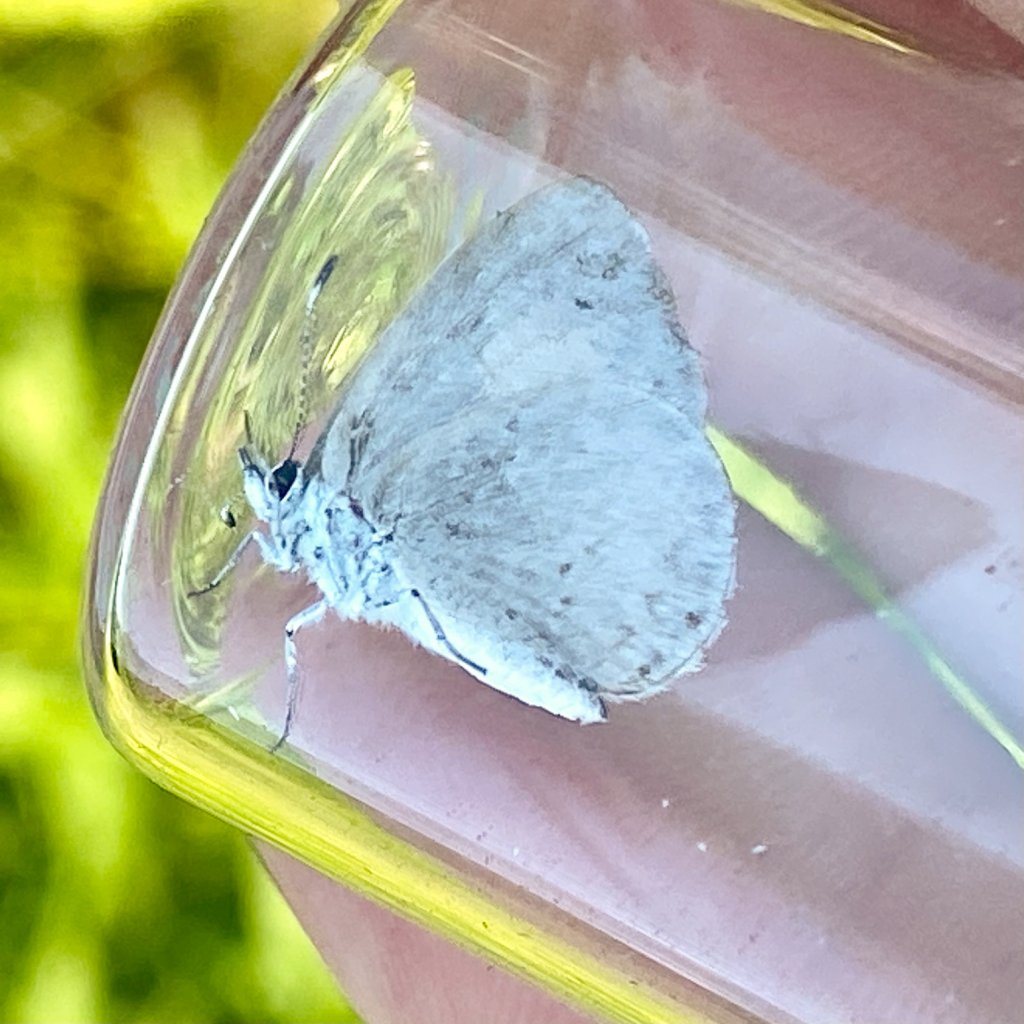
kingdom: Animalia
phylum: Arthropoda
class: Insecta
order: Lepidoptera
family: Lycaenidae
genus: Celastrina
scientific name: Celastrina lucia
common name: Northern Spring Azure
